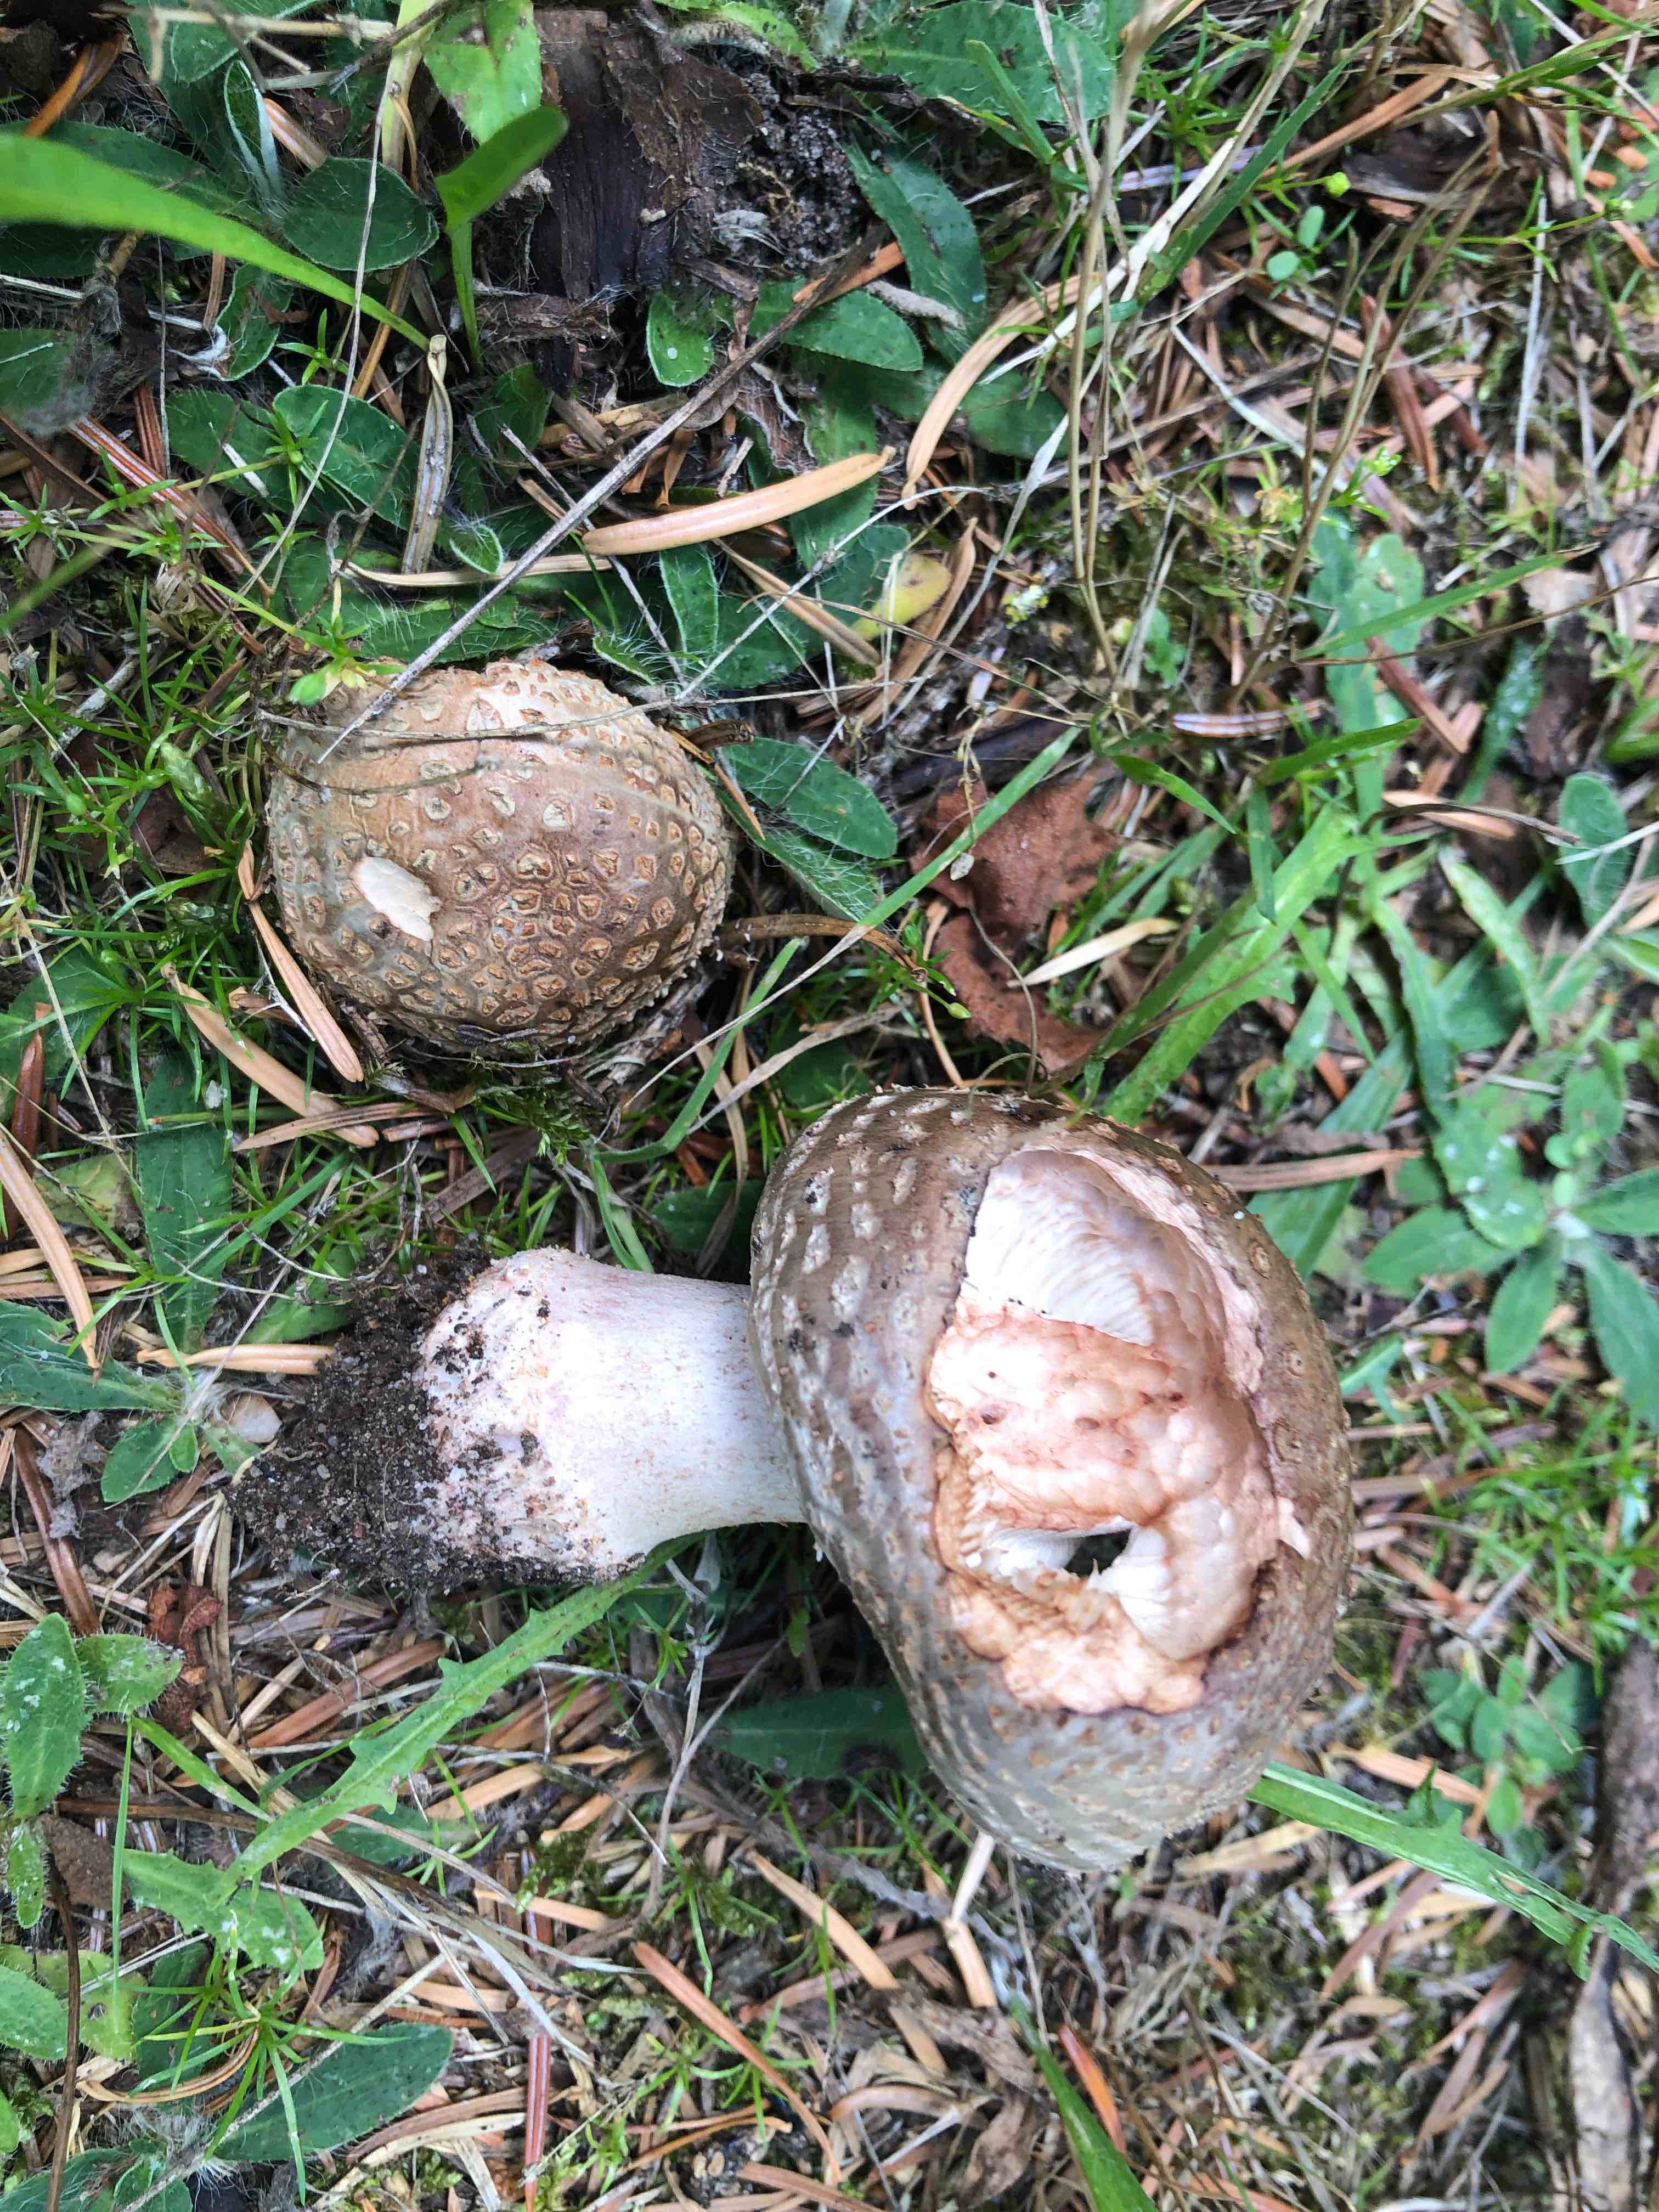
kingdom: Fungi
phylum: Basidiomycota
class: Agaricomycetes
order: Agaricales
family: Amanitaceae
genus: Amanita
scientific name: Amanita rubescens
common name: rødmende fluesvamp
